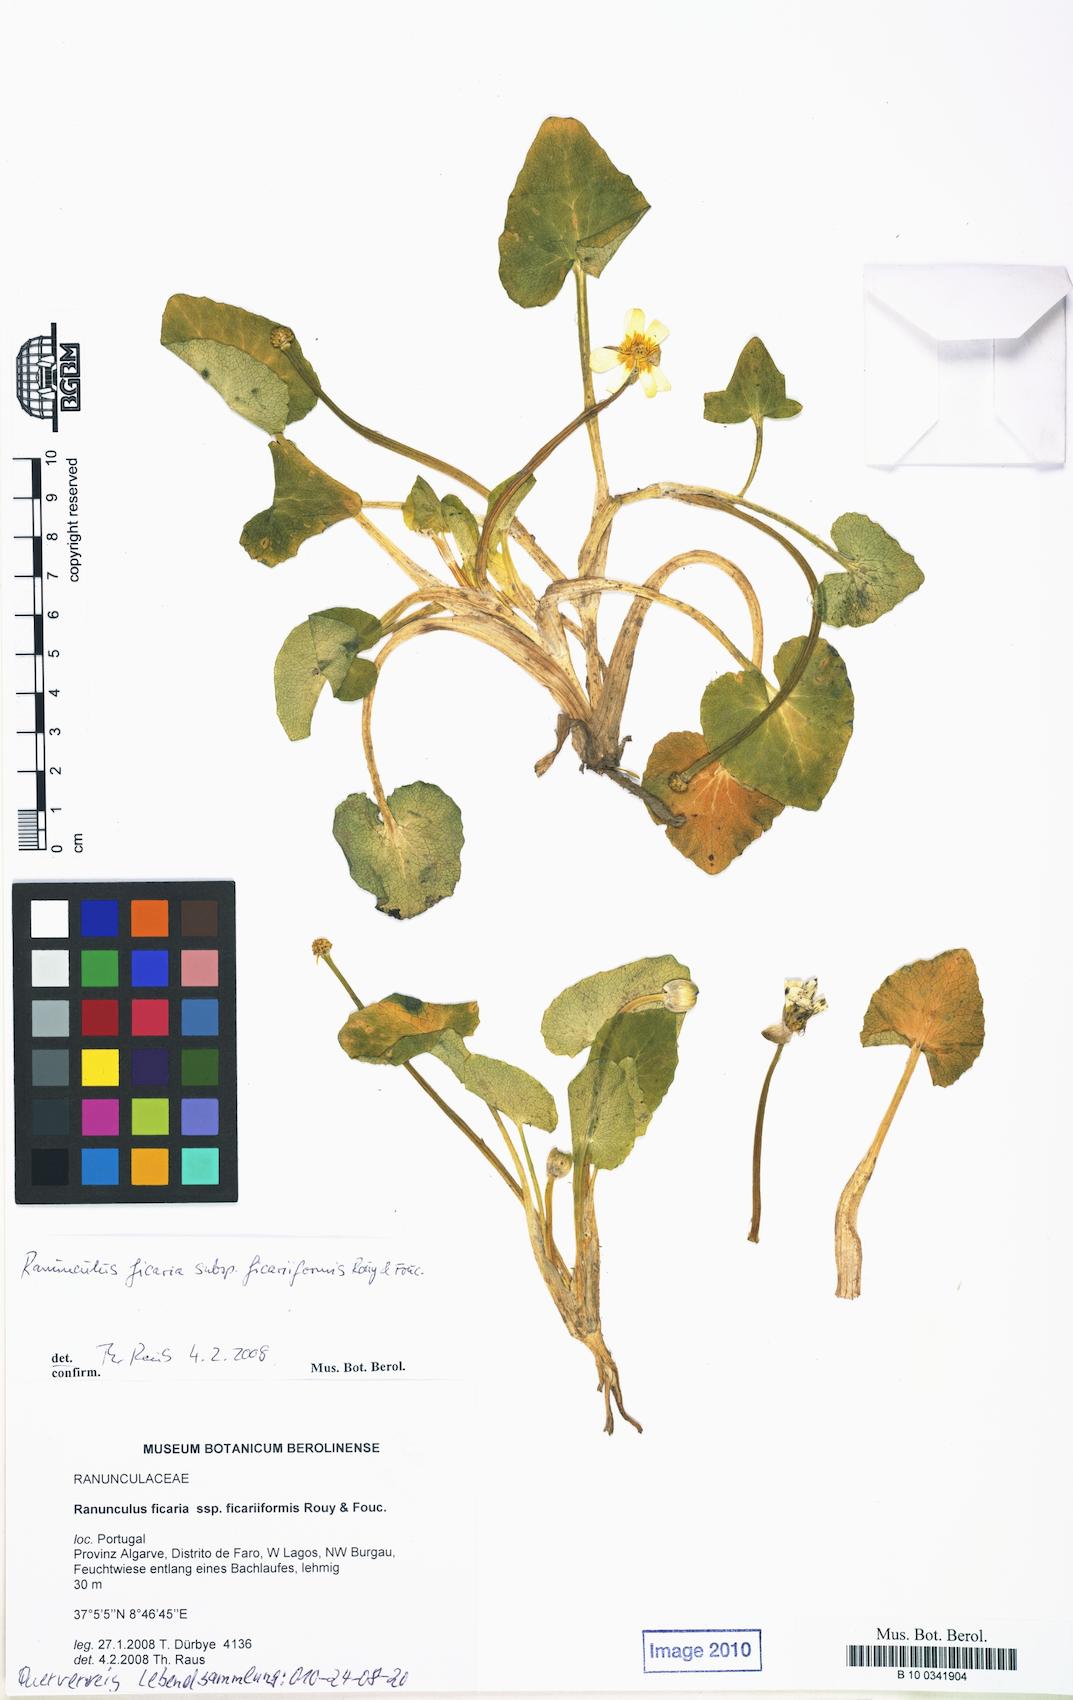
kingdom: Plantae
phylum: Tracheophyta
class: Magnoliopsida
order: Ranunculales
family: Ranunculaceae
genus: Ficaria
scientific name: Ficaria grandiflora
